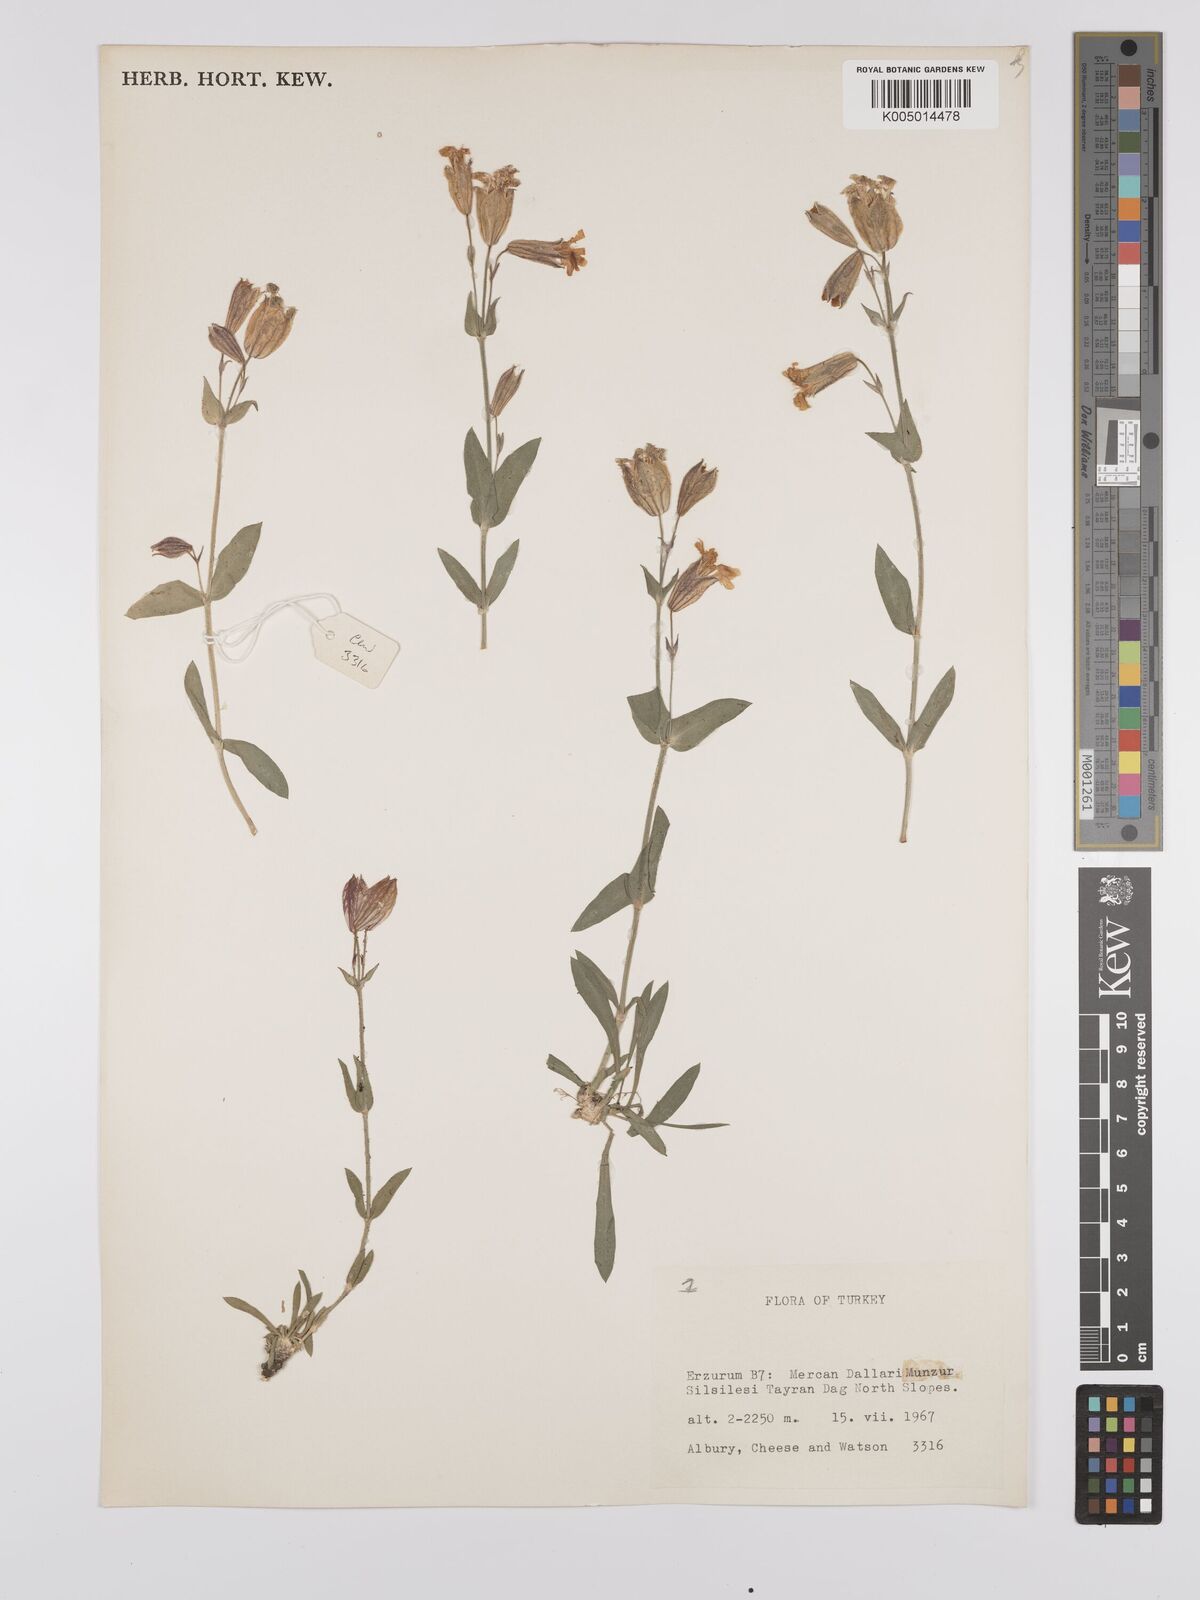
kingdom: Plantae
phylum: Tracheophyta
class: Magnoliopsida
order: Caryophyllales
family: Caryophyllaceae
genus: Silene
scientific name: Silene
